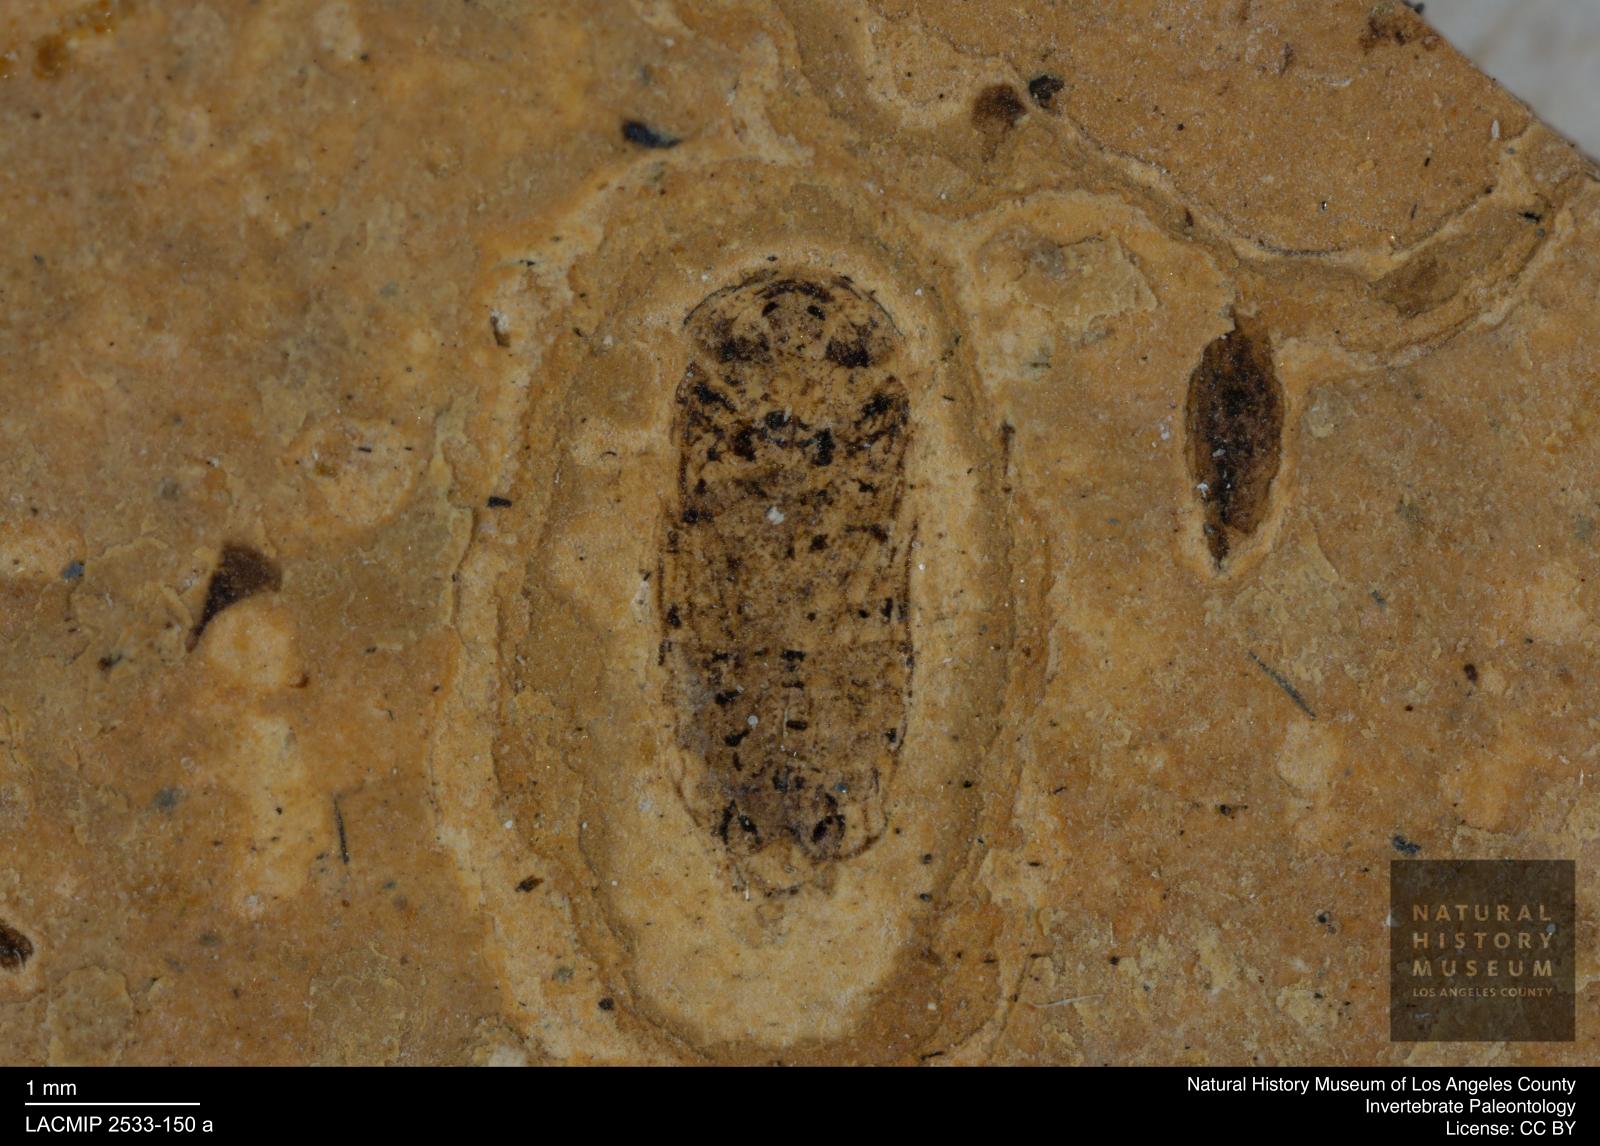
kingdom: Animalia
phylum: Arthropoda
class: Insecta
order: Hemiptera
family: Cicadellidae
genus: Iassus
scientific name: Iassus sepultus
